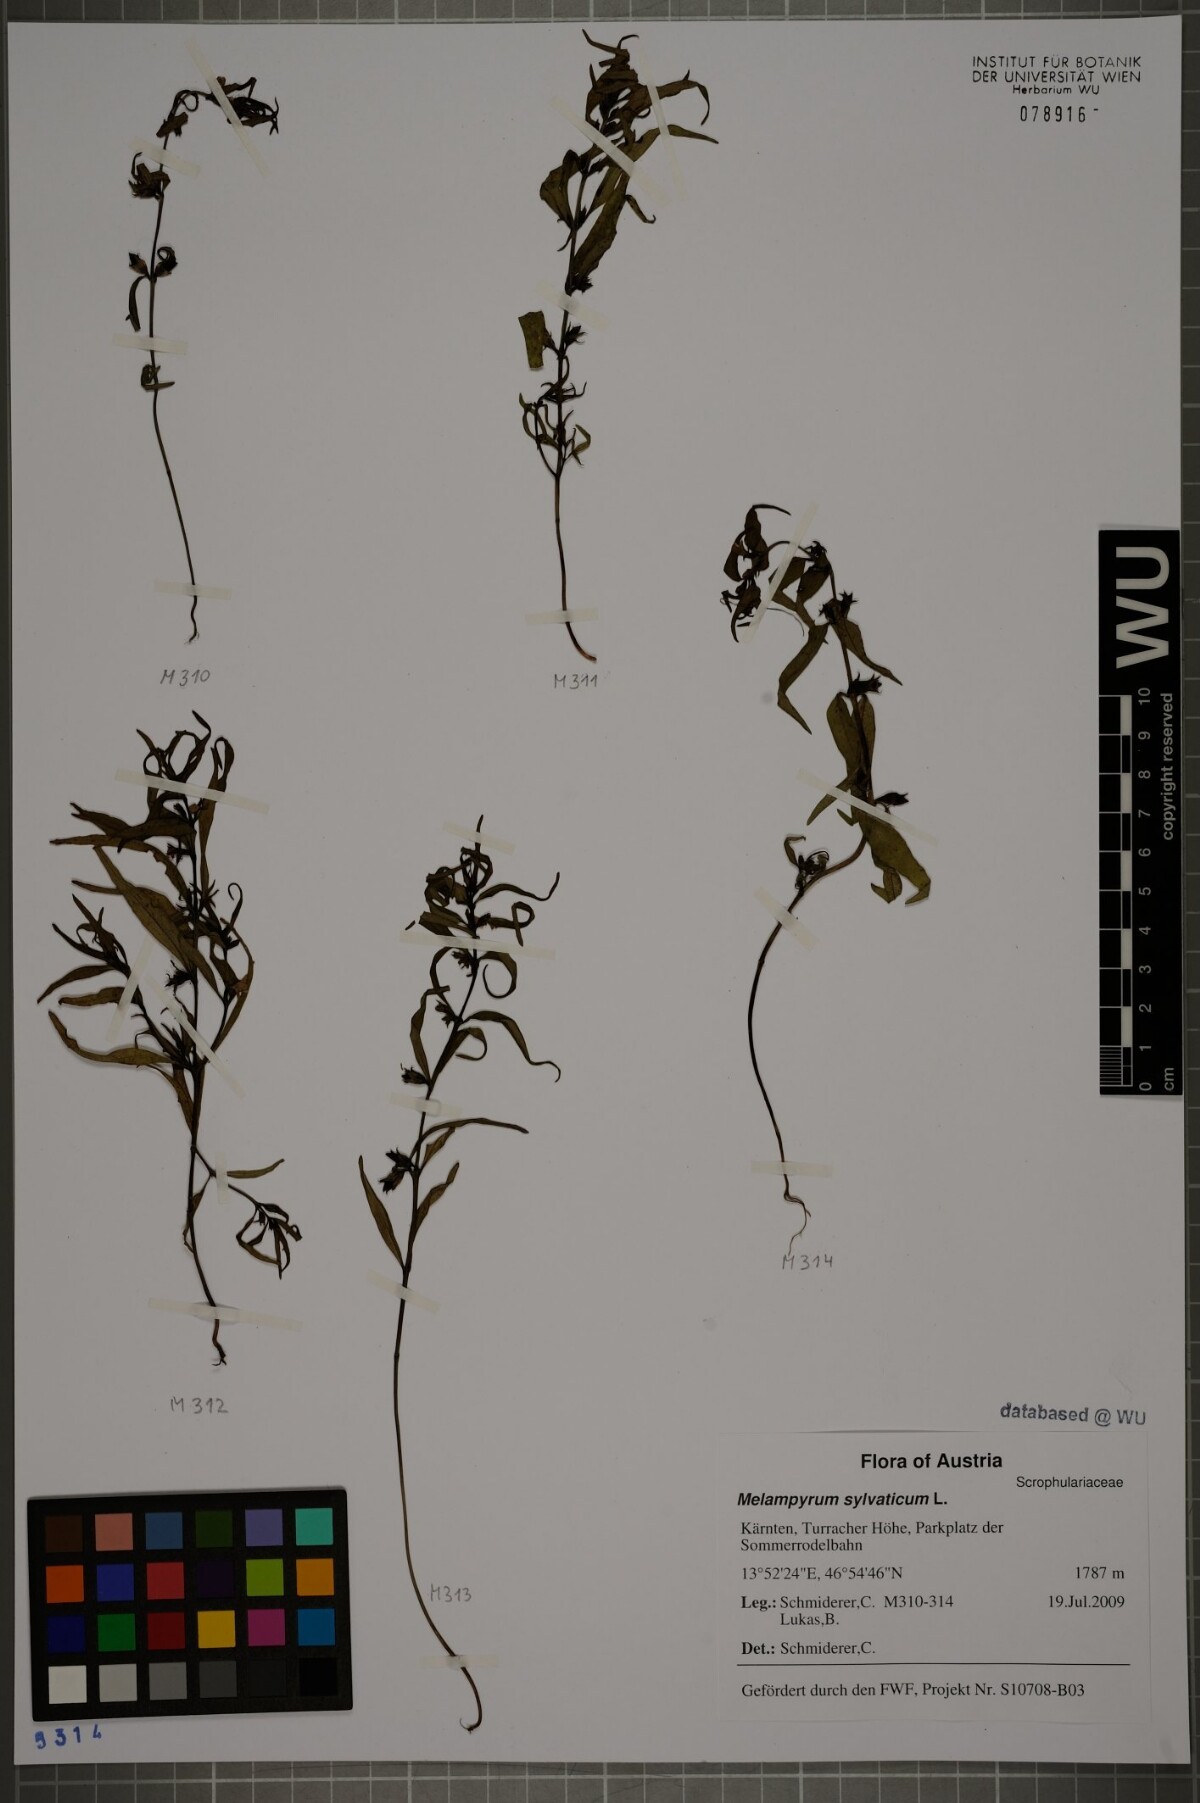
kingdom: Plantae
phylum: Tracheophyta
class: Magnoliopsida
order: Lamiales
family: Orobanchaceae
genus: Melampyrum
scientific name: Melampyrum sylvaticum
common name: Small cow-wheat
